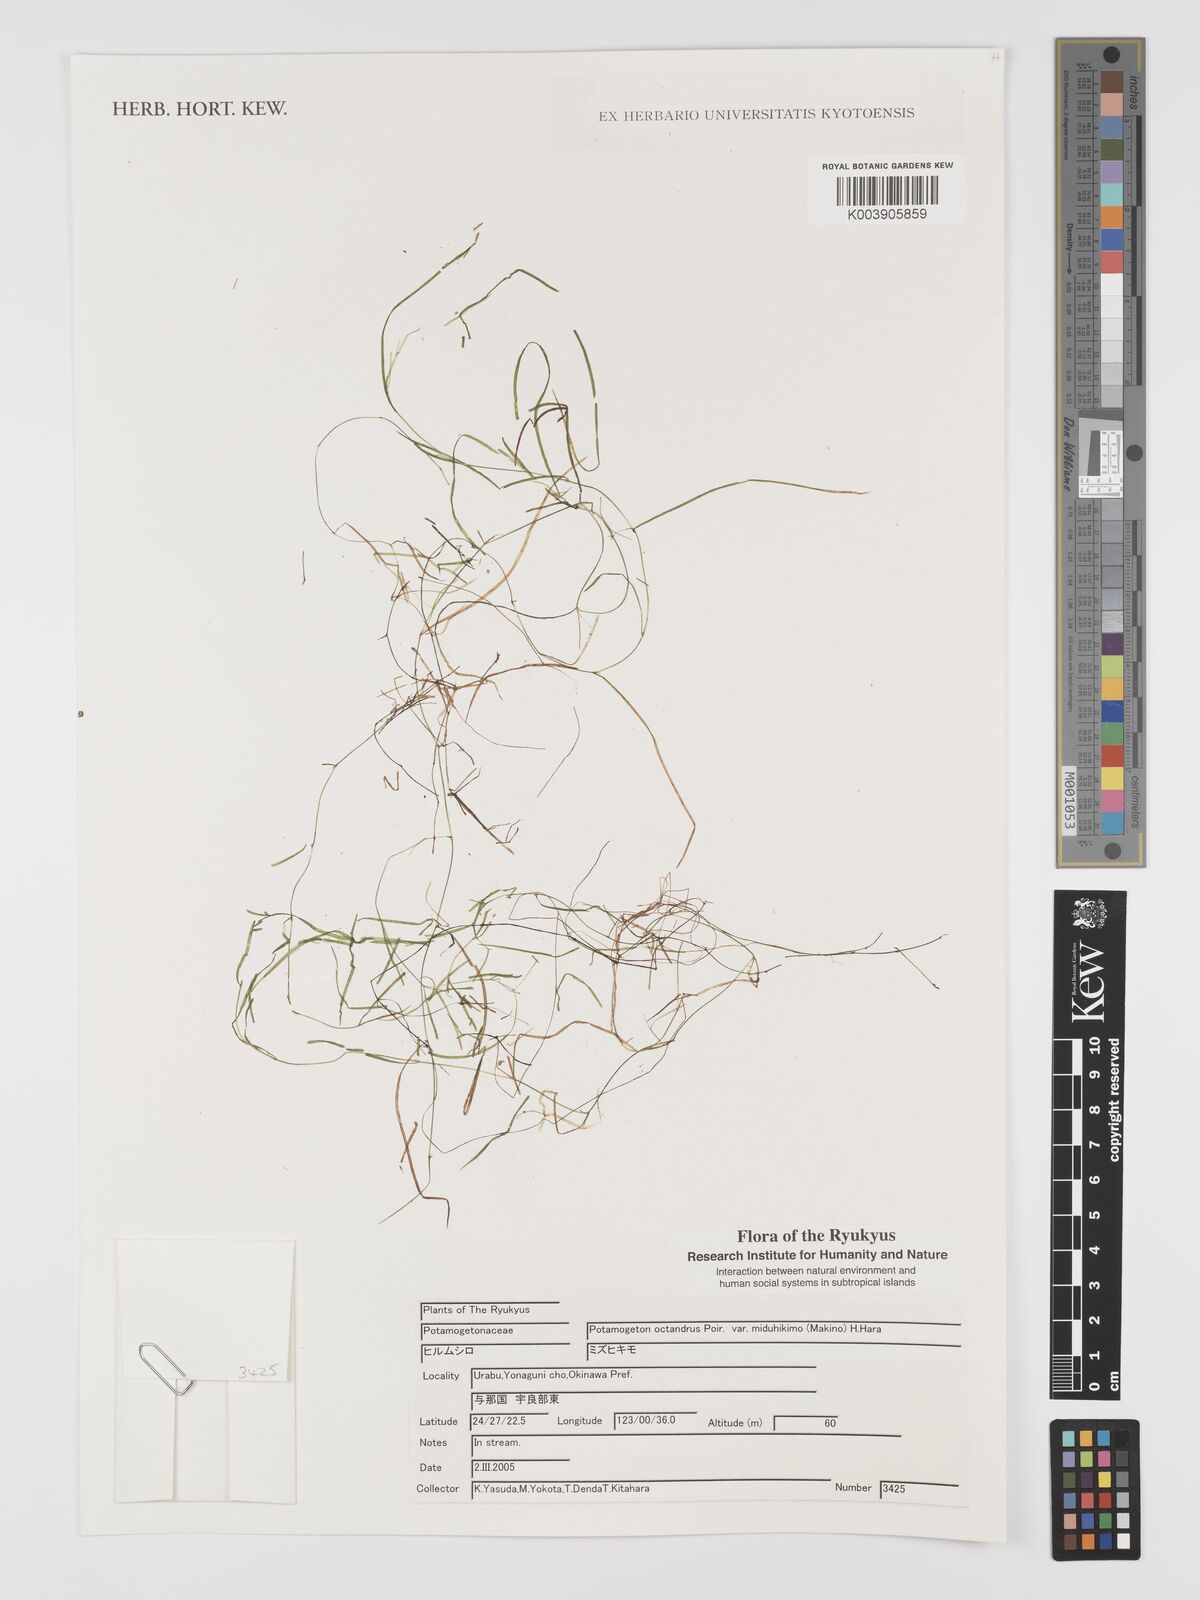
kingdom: Plantae
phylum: Tracheophyta
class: Liliopsida
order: Alismatales
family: Potamogetonaceae
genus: Potamogeton
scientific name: Potamogeton octandrus
